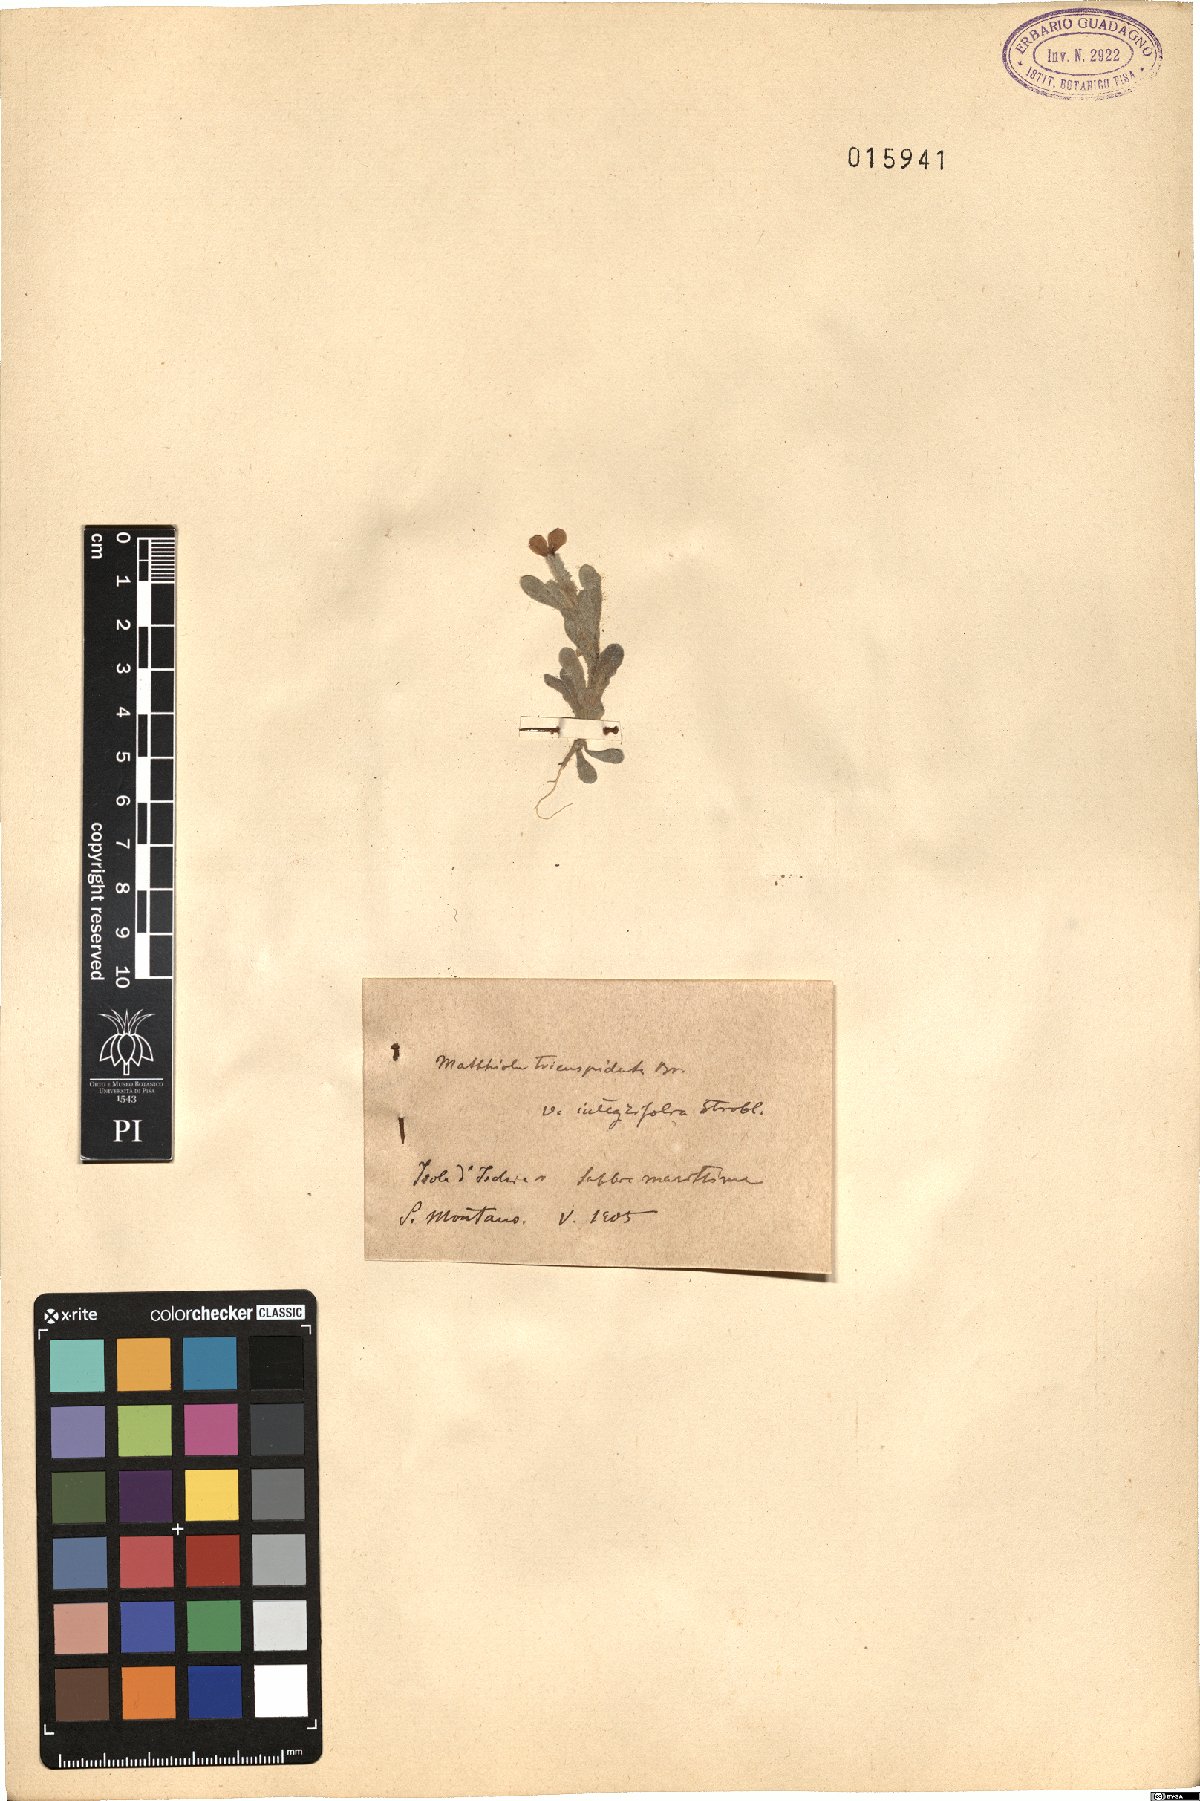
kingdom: Plantae
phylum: Tracheophyta
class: Magnoliopsida
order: Brassicales
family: Brassicaceae
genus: Matthiola
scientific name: Matthiola tricuspidata
